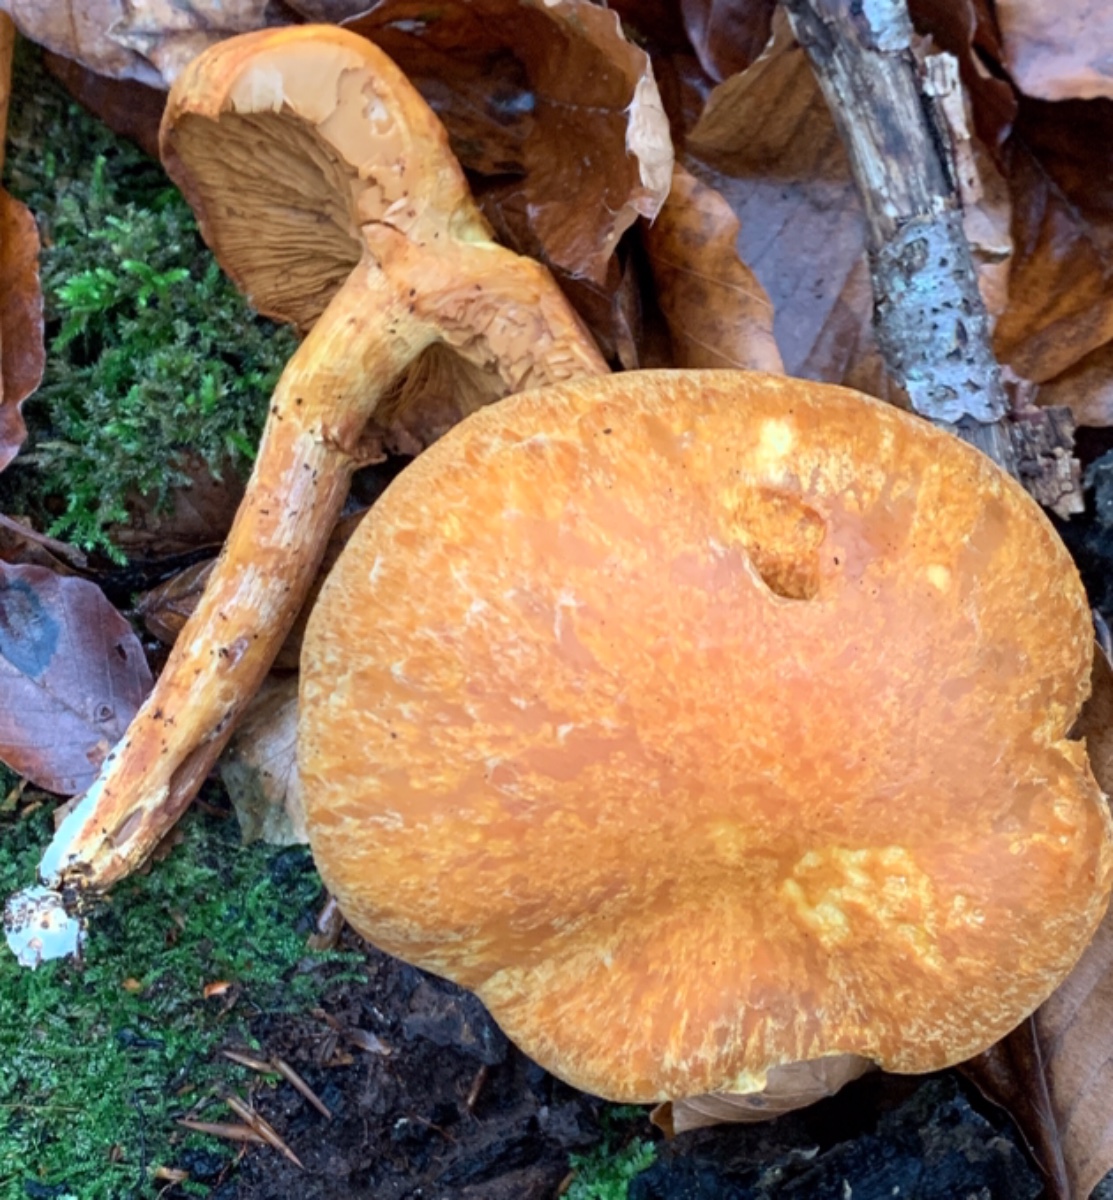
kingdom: Fungi
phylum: Basidiomycota
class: Agaricomycetes
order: Agaricales
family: Hymenogastraceae
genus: Gymnopilus
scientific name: Gymnopilus spectabilis
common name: fibret flammehat
